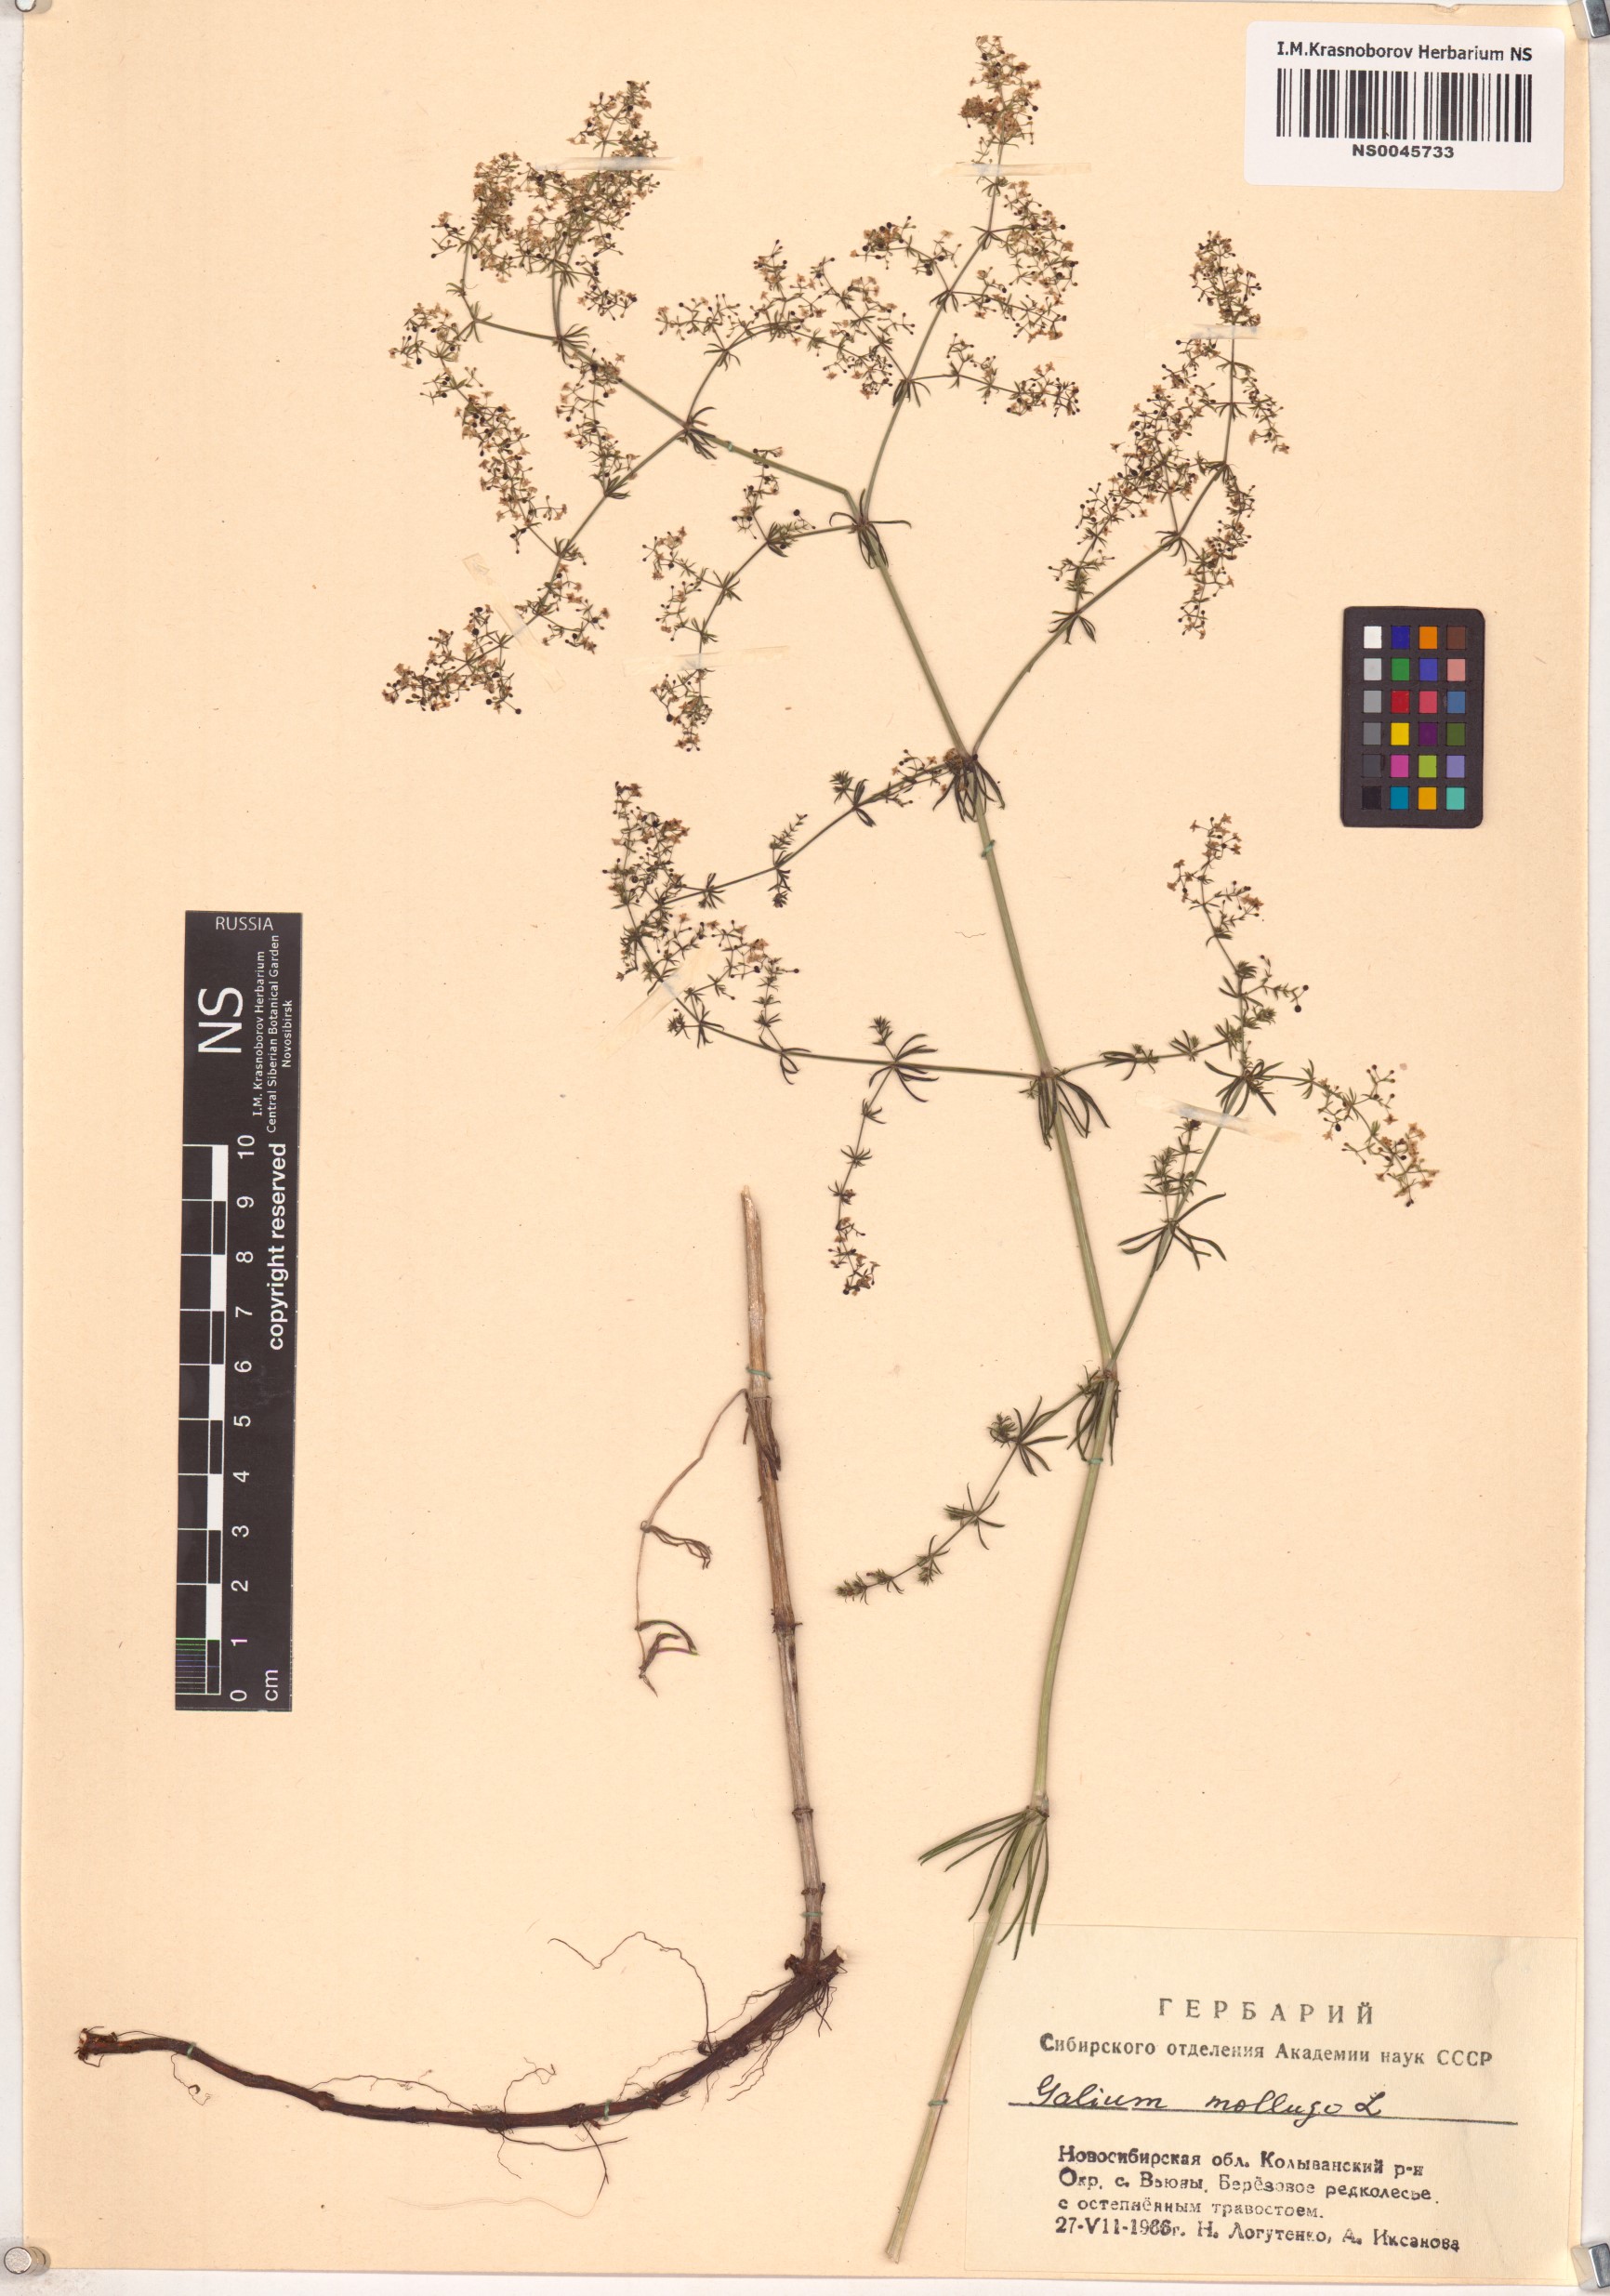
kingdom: Plantae
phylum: Tracheophyta
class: Magnoliopsida
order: Gentianales
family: Rubiaceae
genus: Galium
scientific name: Galium mollugo
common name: Hedge bedstraw
